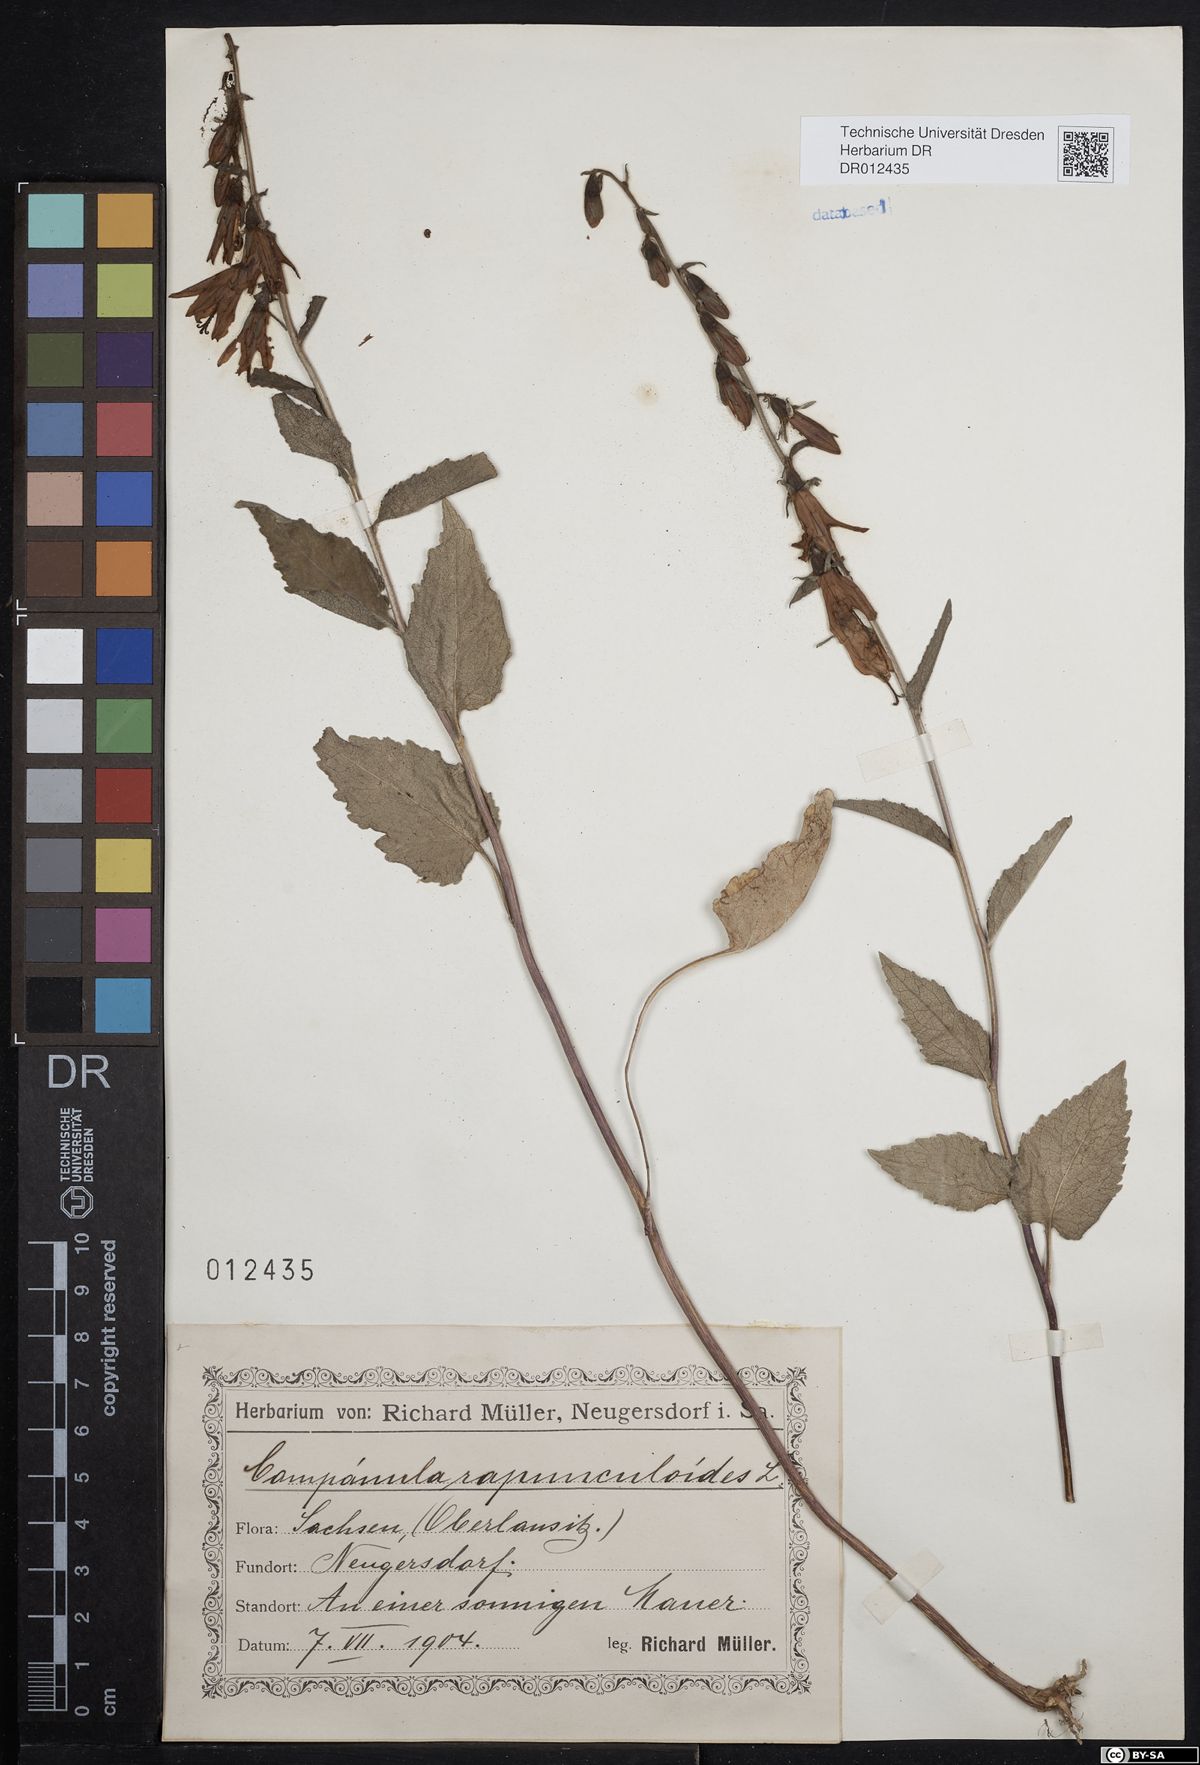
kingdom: Plantae
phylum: Tracheophyta
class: Magnoliopsida
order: Asterales
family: Campanulaceae
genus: Campanula
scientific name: Campanula rapunculoides
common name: Creeping bellflower
